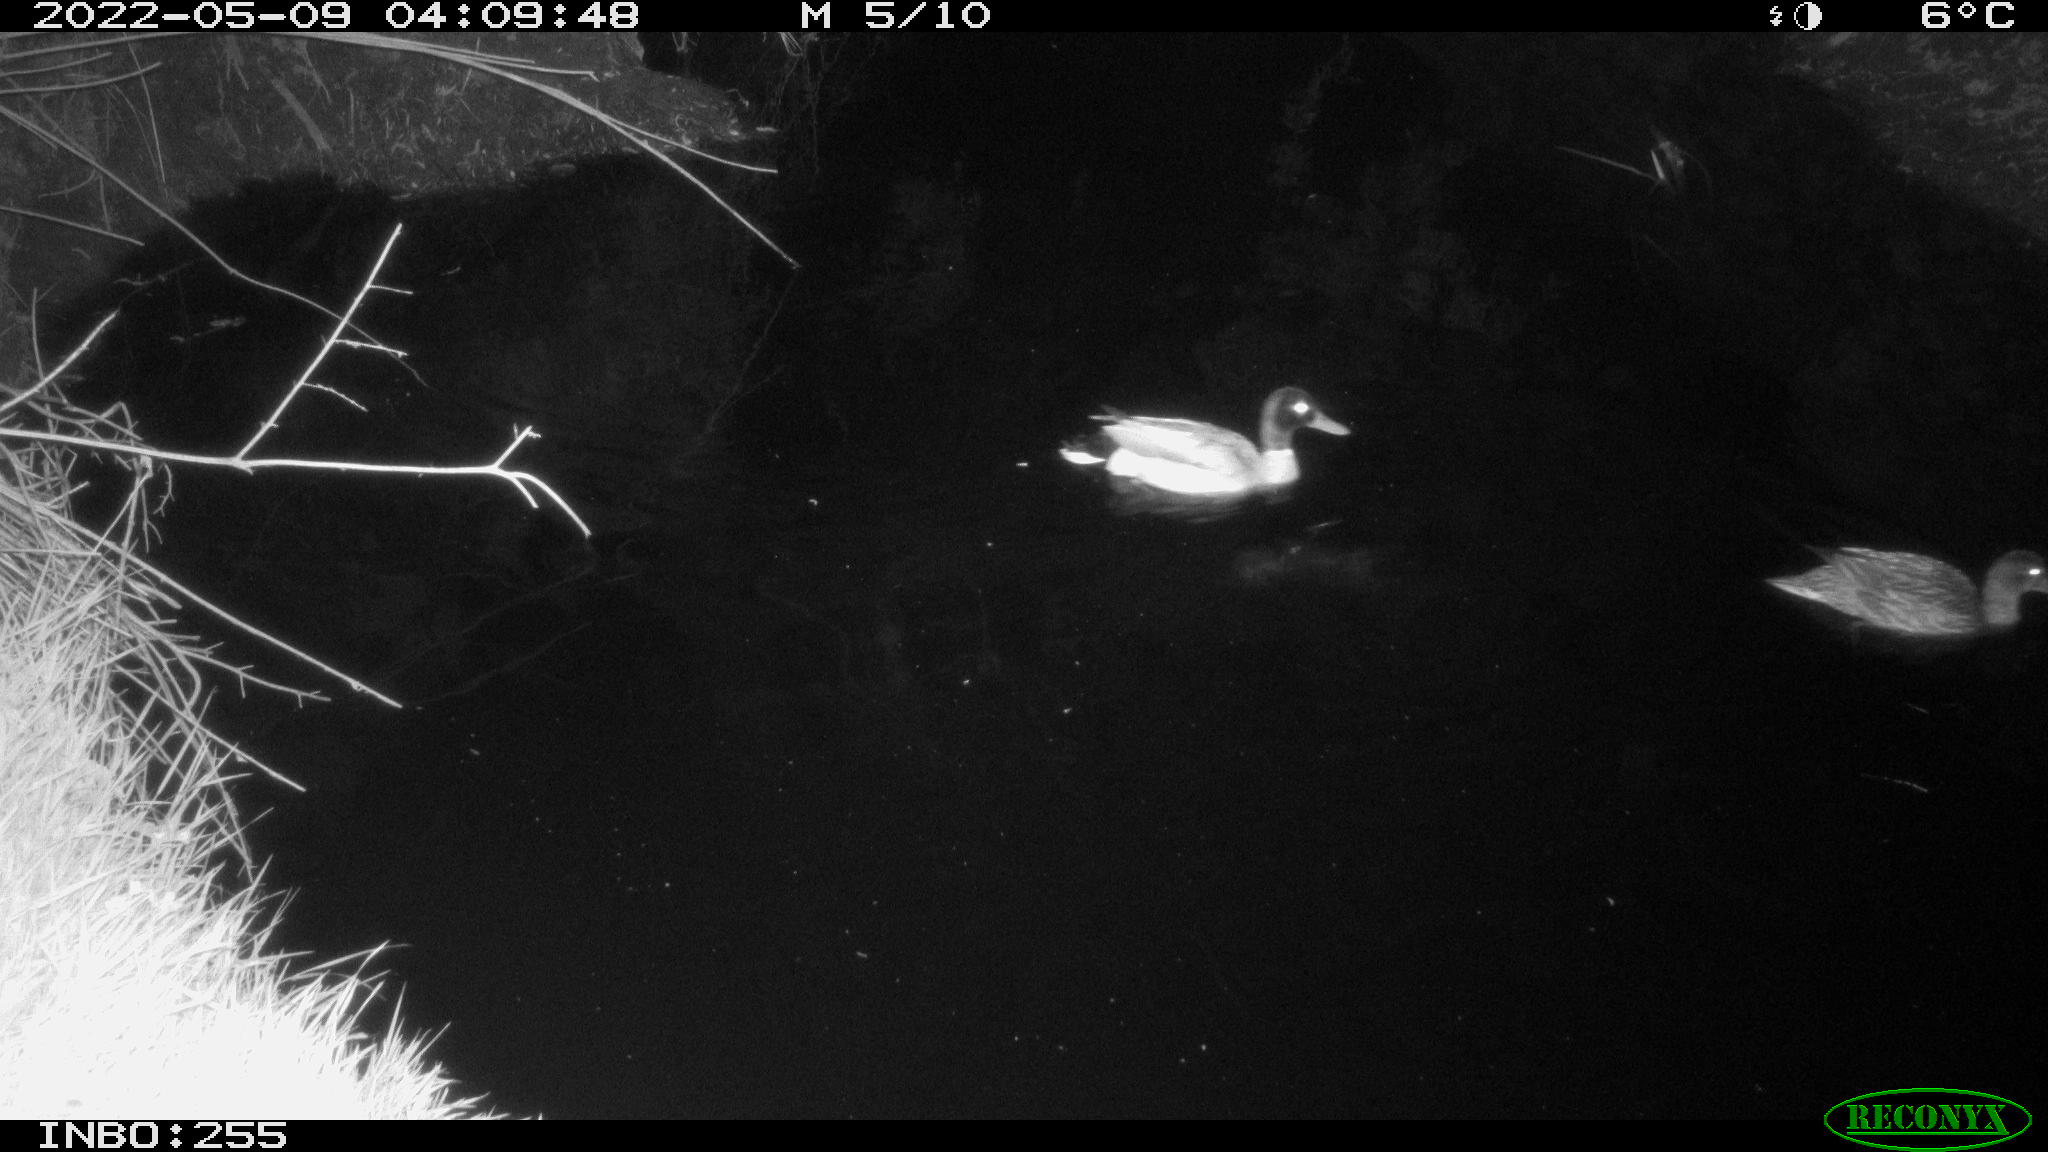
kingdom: Animalia
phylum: Chordata
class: Aves
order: Anseriformes
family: Anatidae
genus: Anas
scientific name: Anas platyrhynchos
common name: Mallard
